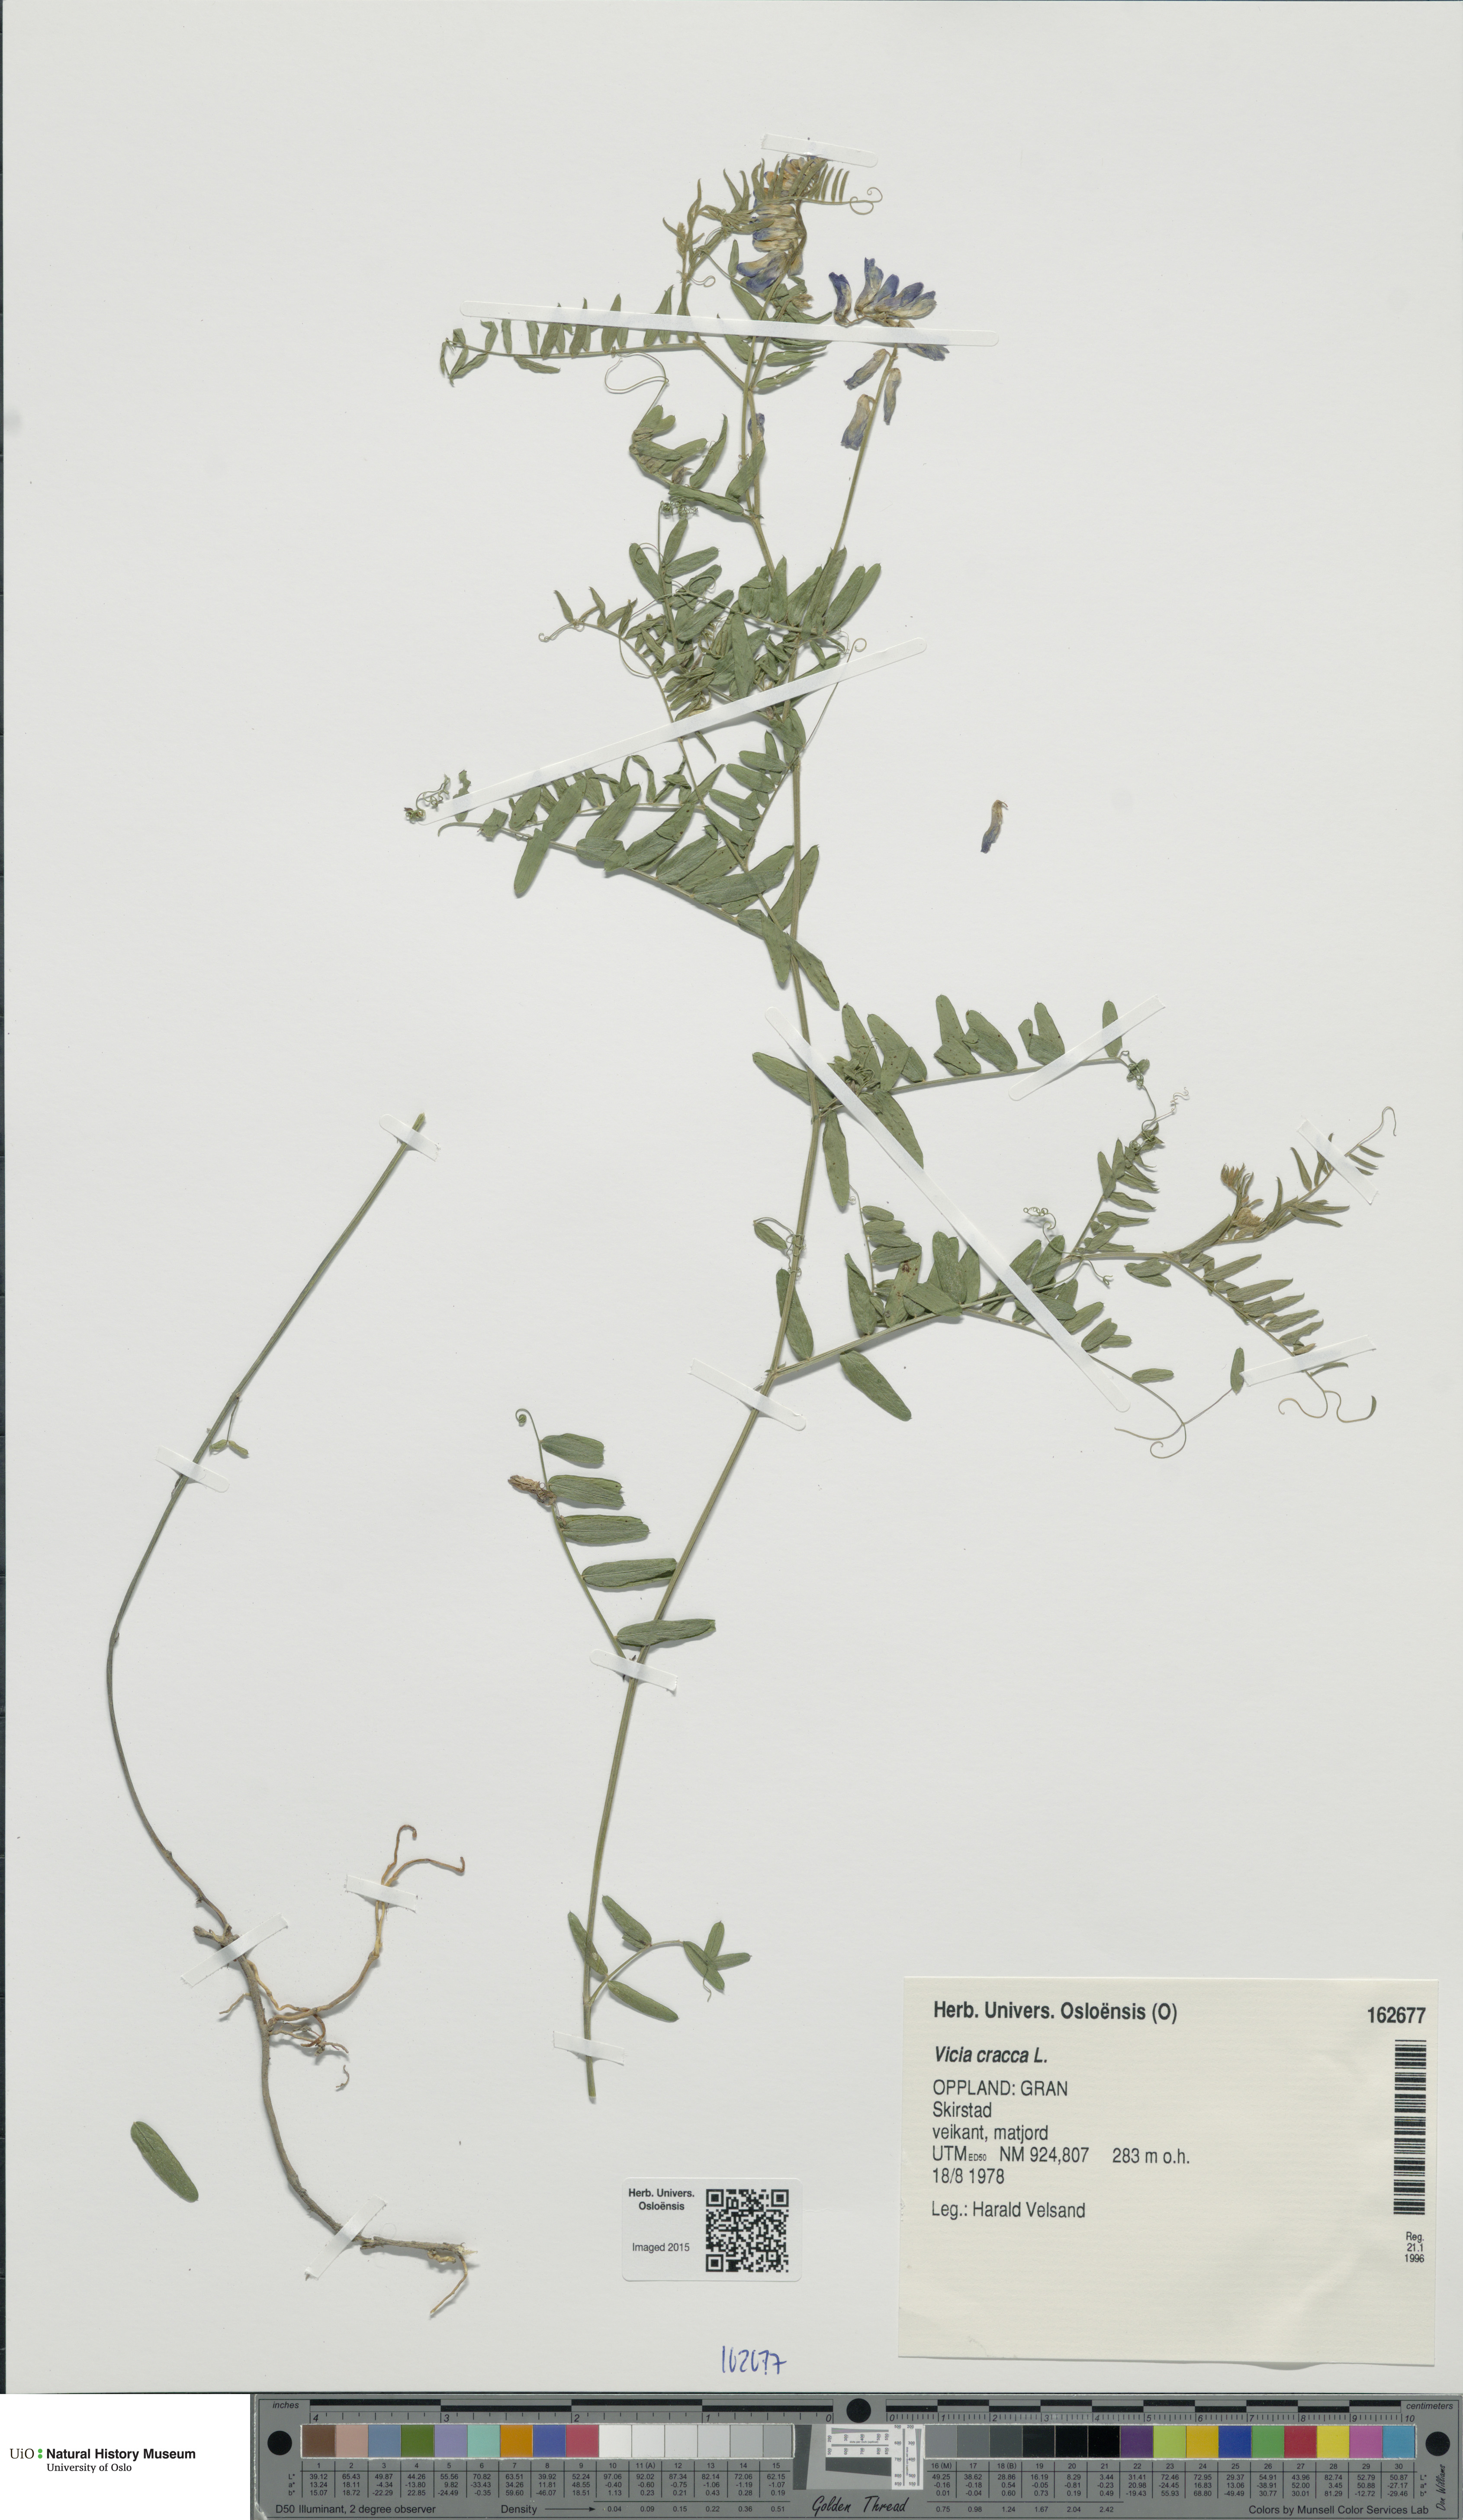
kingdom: Plantae
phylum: Tracheophyta
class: Magnoliopsida
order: Fabales
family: Fabaceae
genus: Vicia
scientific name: Vicia cracca
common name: Bird vetch
